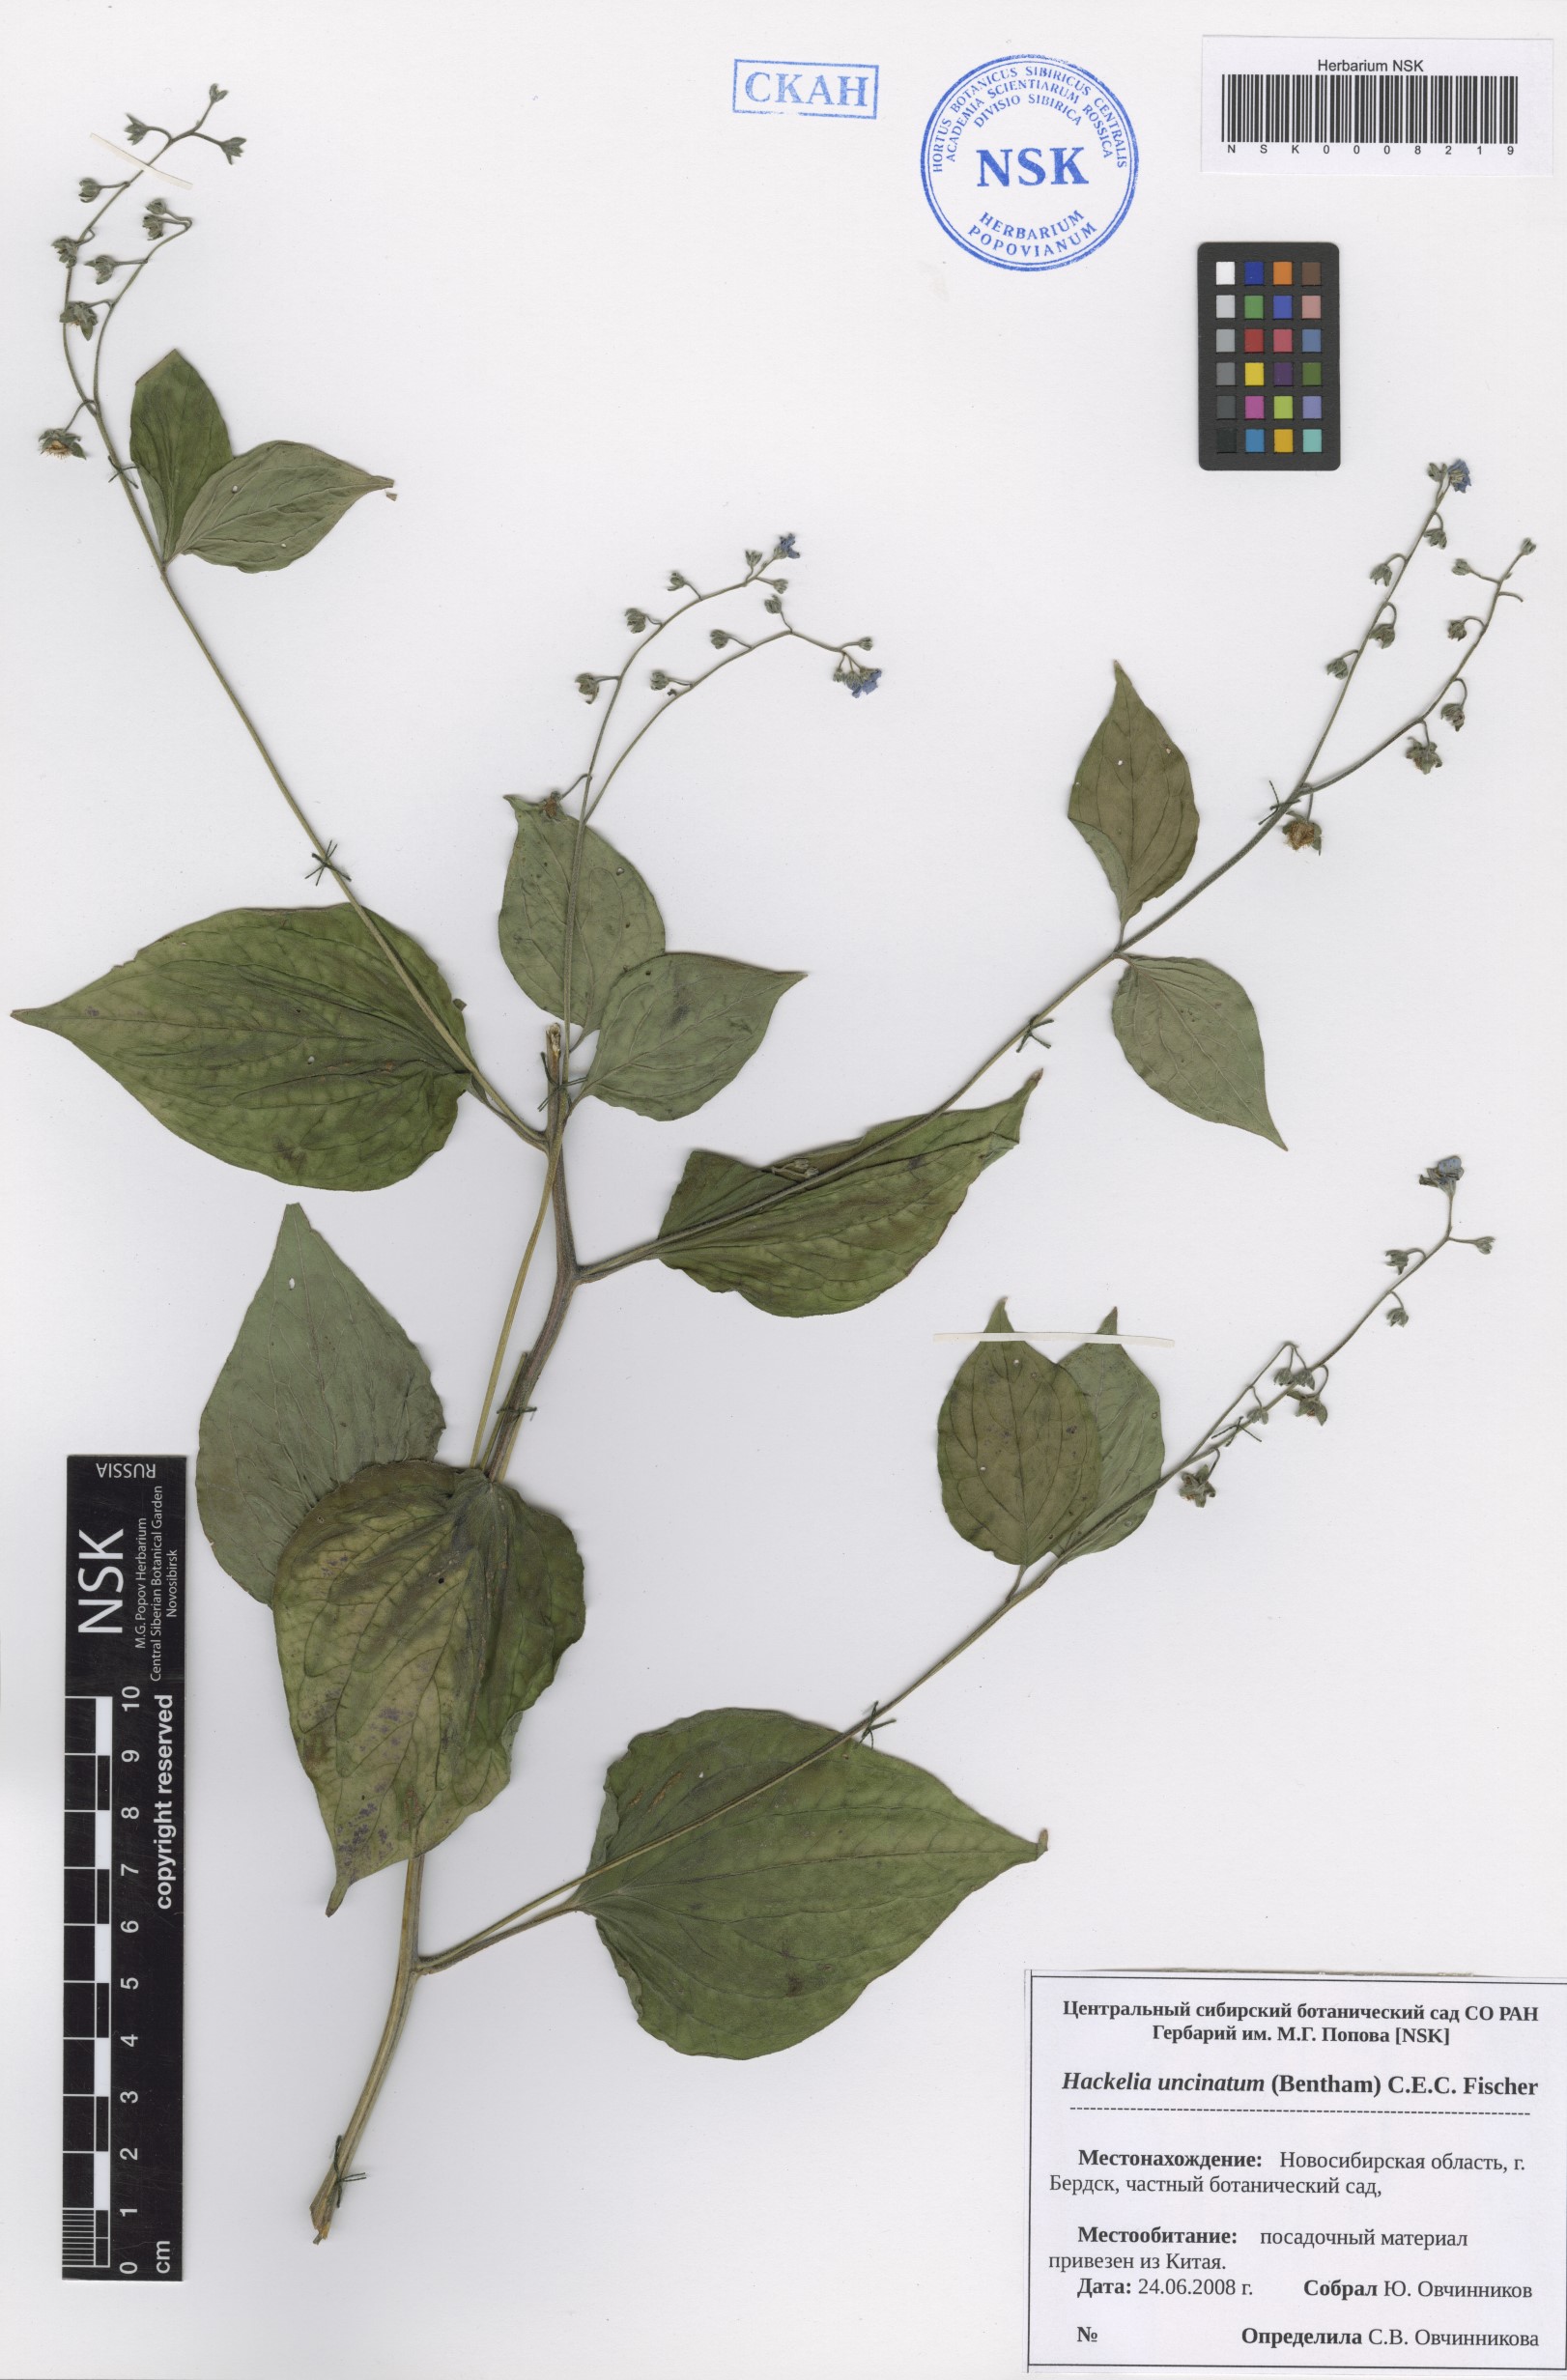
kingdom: Plantae
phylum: Tracheophyta
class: Magnoliopsida
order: Boraginales
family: Boraginaceae
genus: Hackelia
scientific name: Hackelia uncinata
